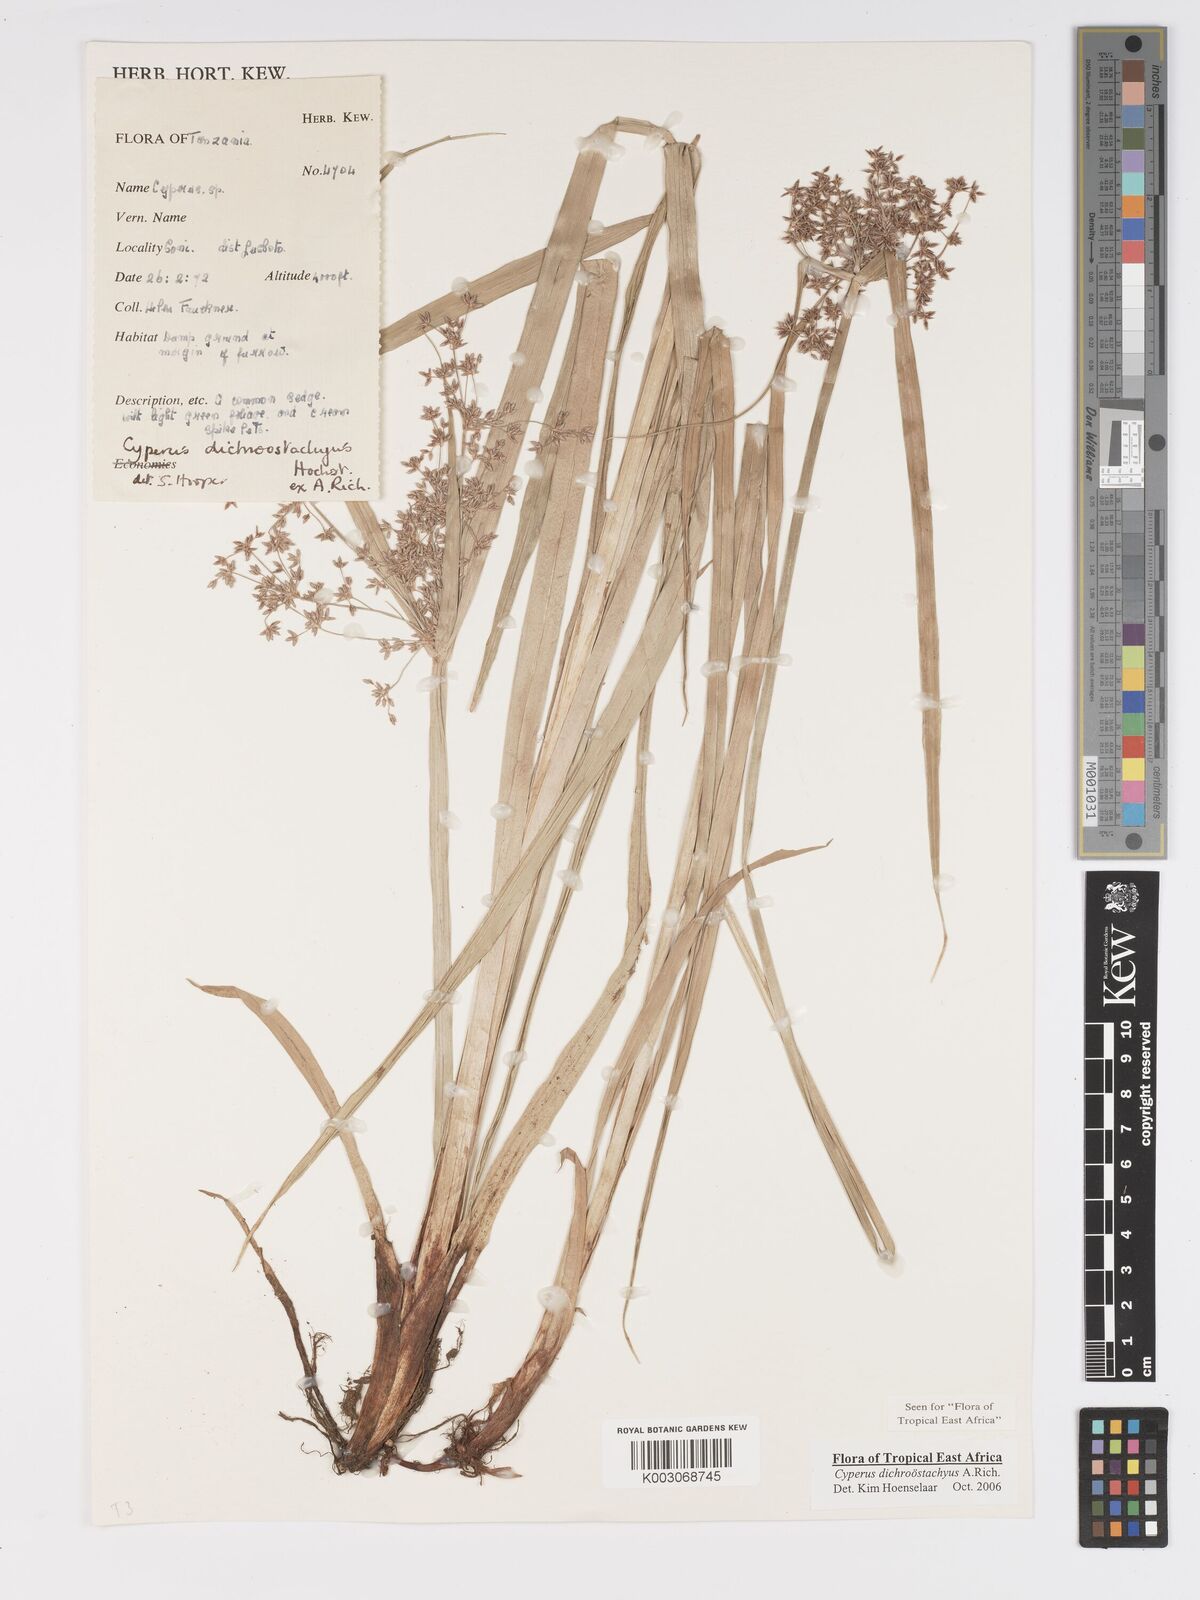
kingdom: Plantae
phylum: Tracheophyta
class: Liliopsida
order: Poales
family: Cyperaceae
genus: Cyperus
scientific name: Cyperus dichrostachyus
